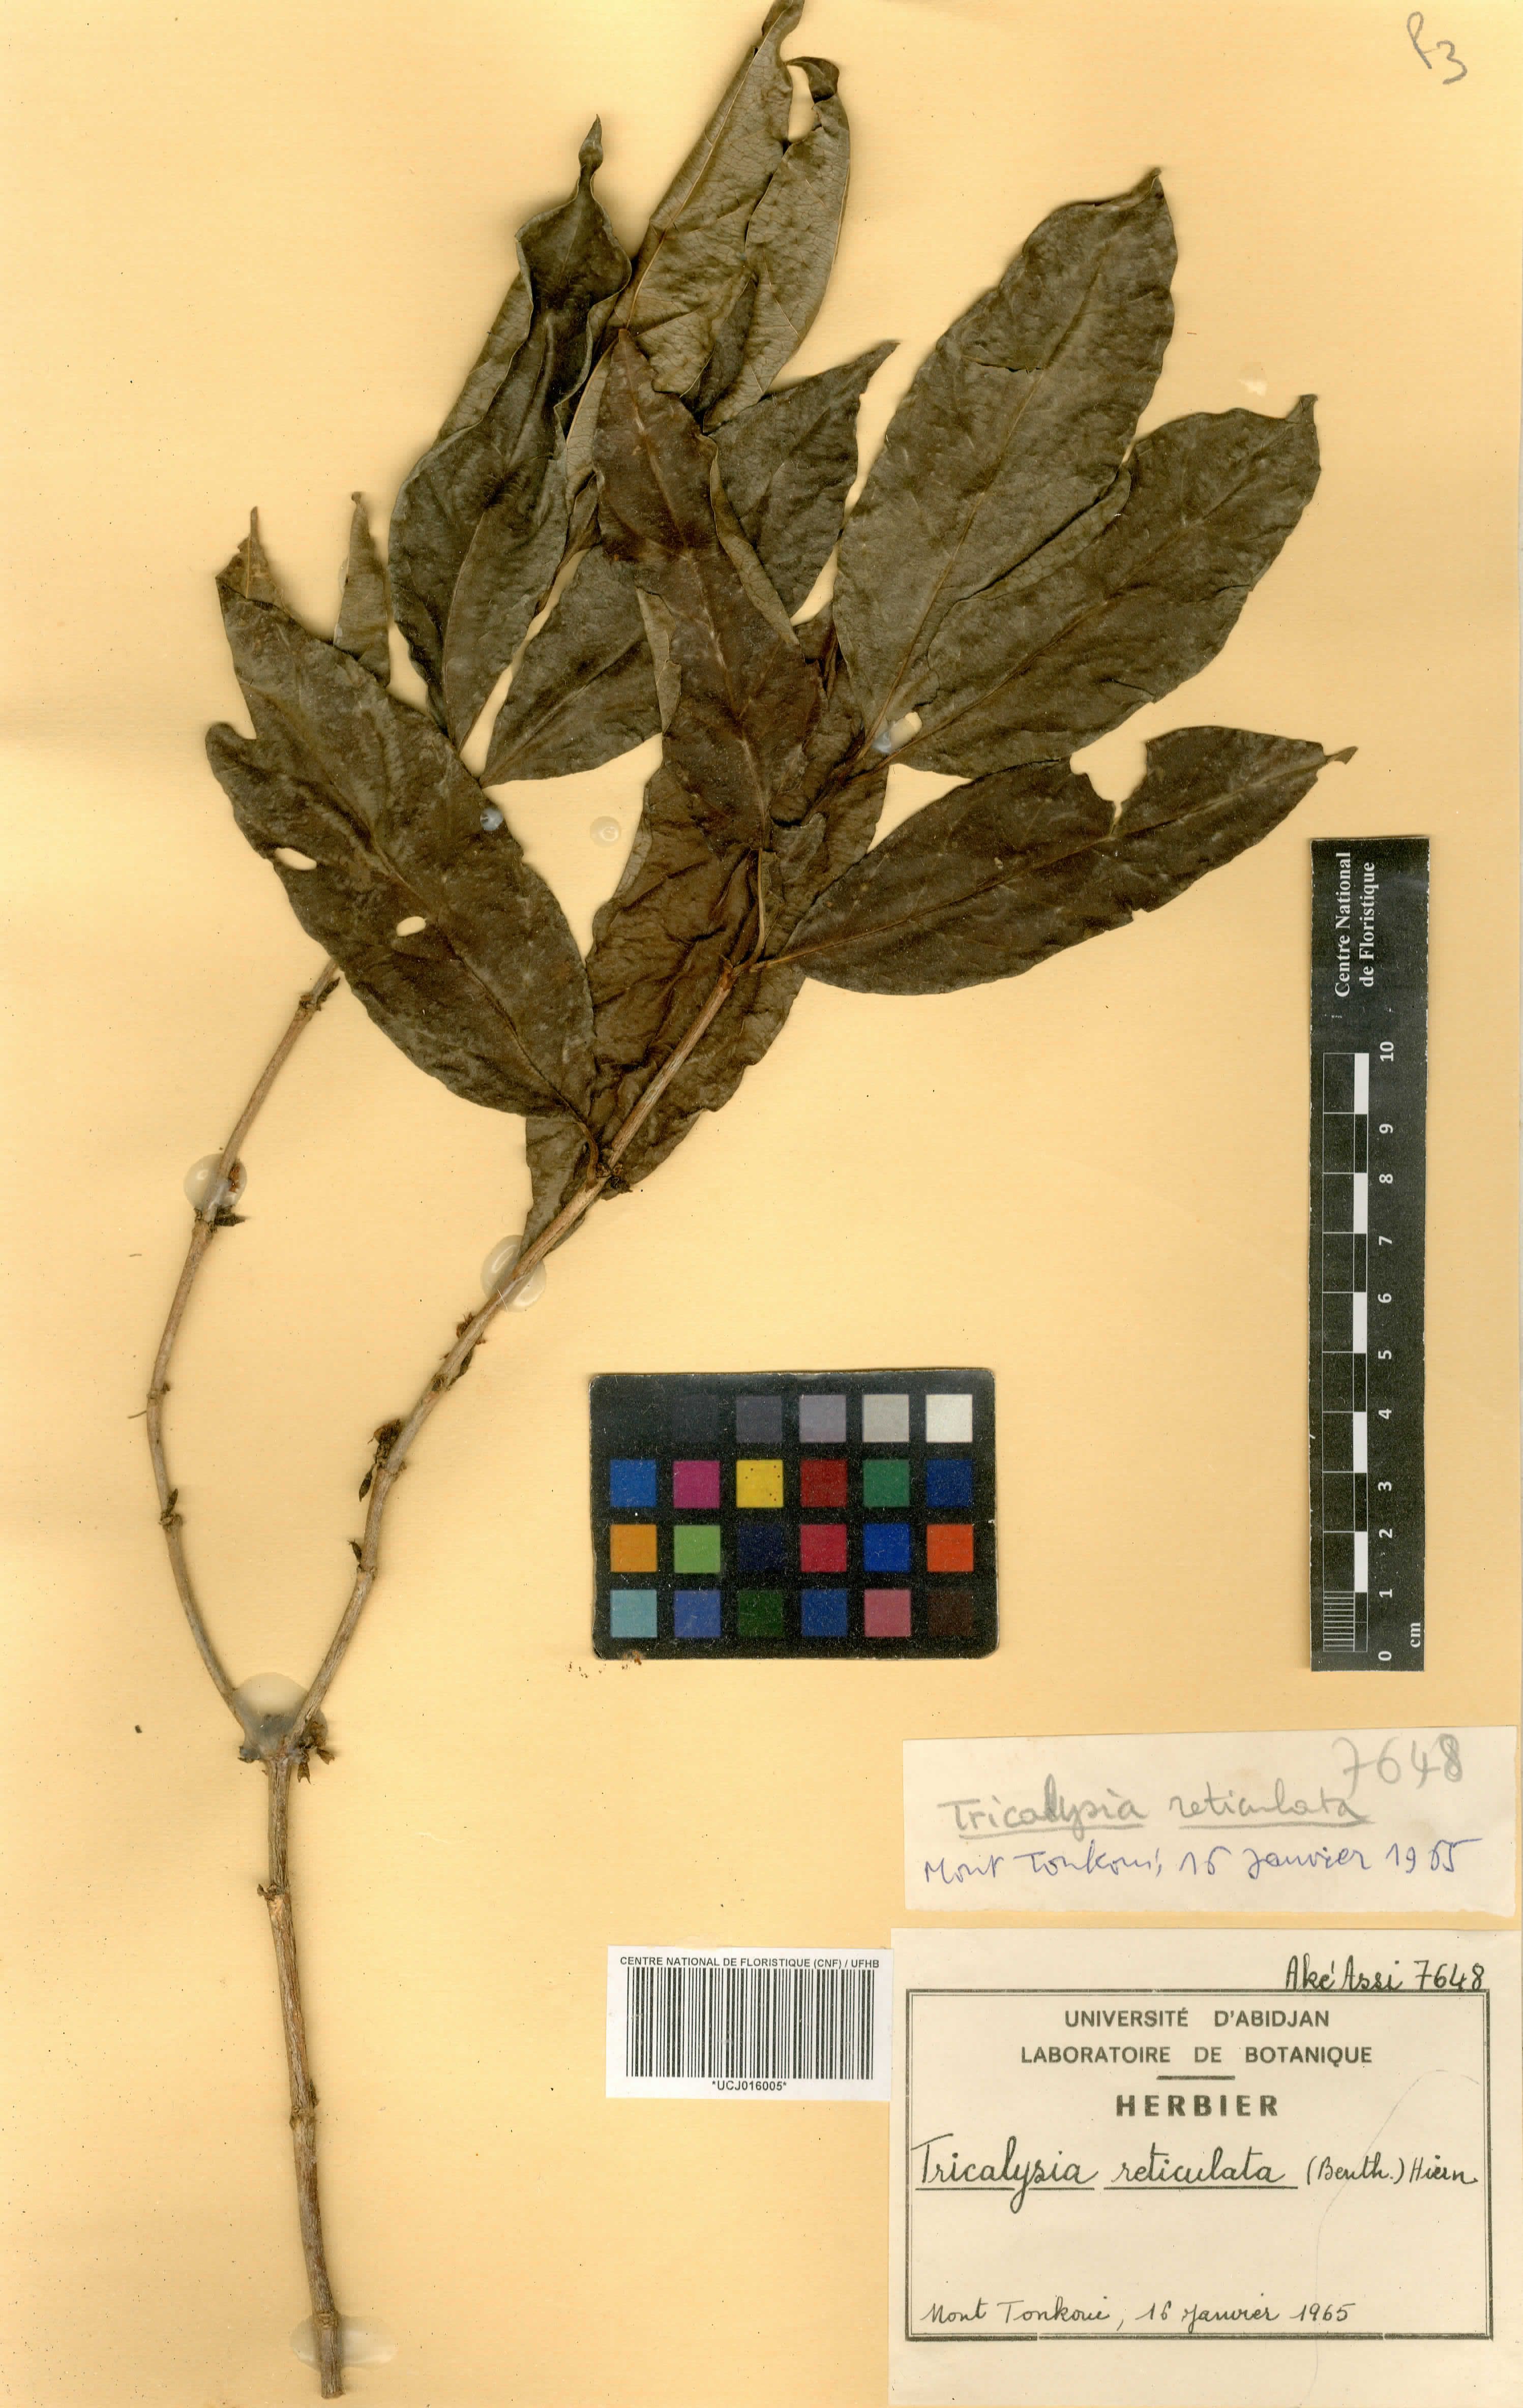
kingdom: Plantae
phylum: Tracheophyta
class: Magnoliopsida
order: Gentianales
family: Rubiaceae
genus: Tricalysia
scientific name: Tricalysia reticulata
